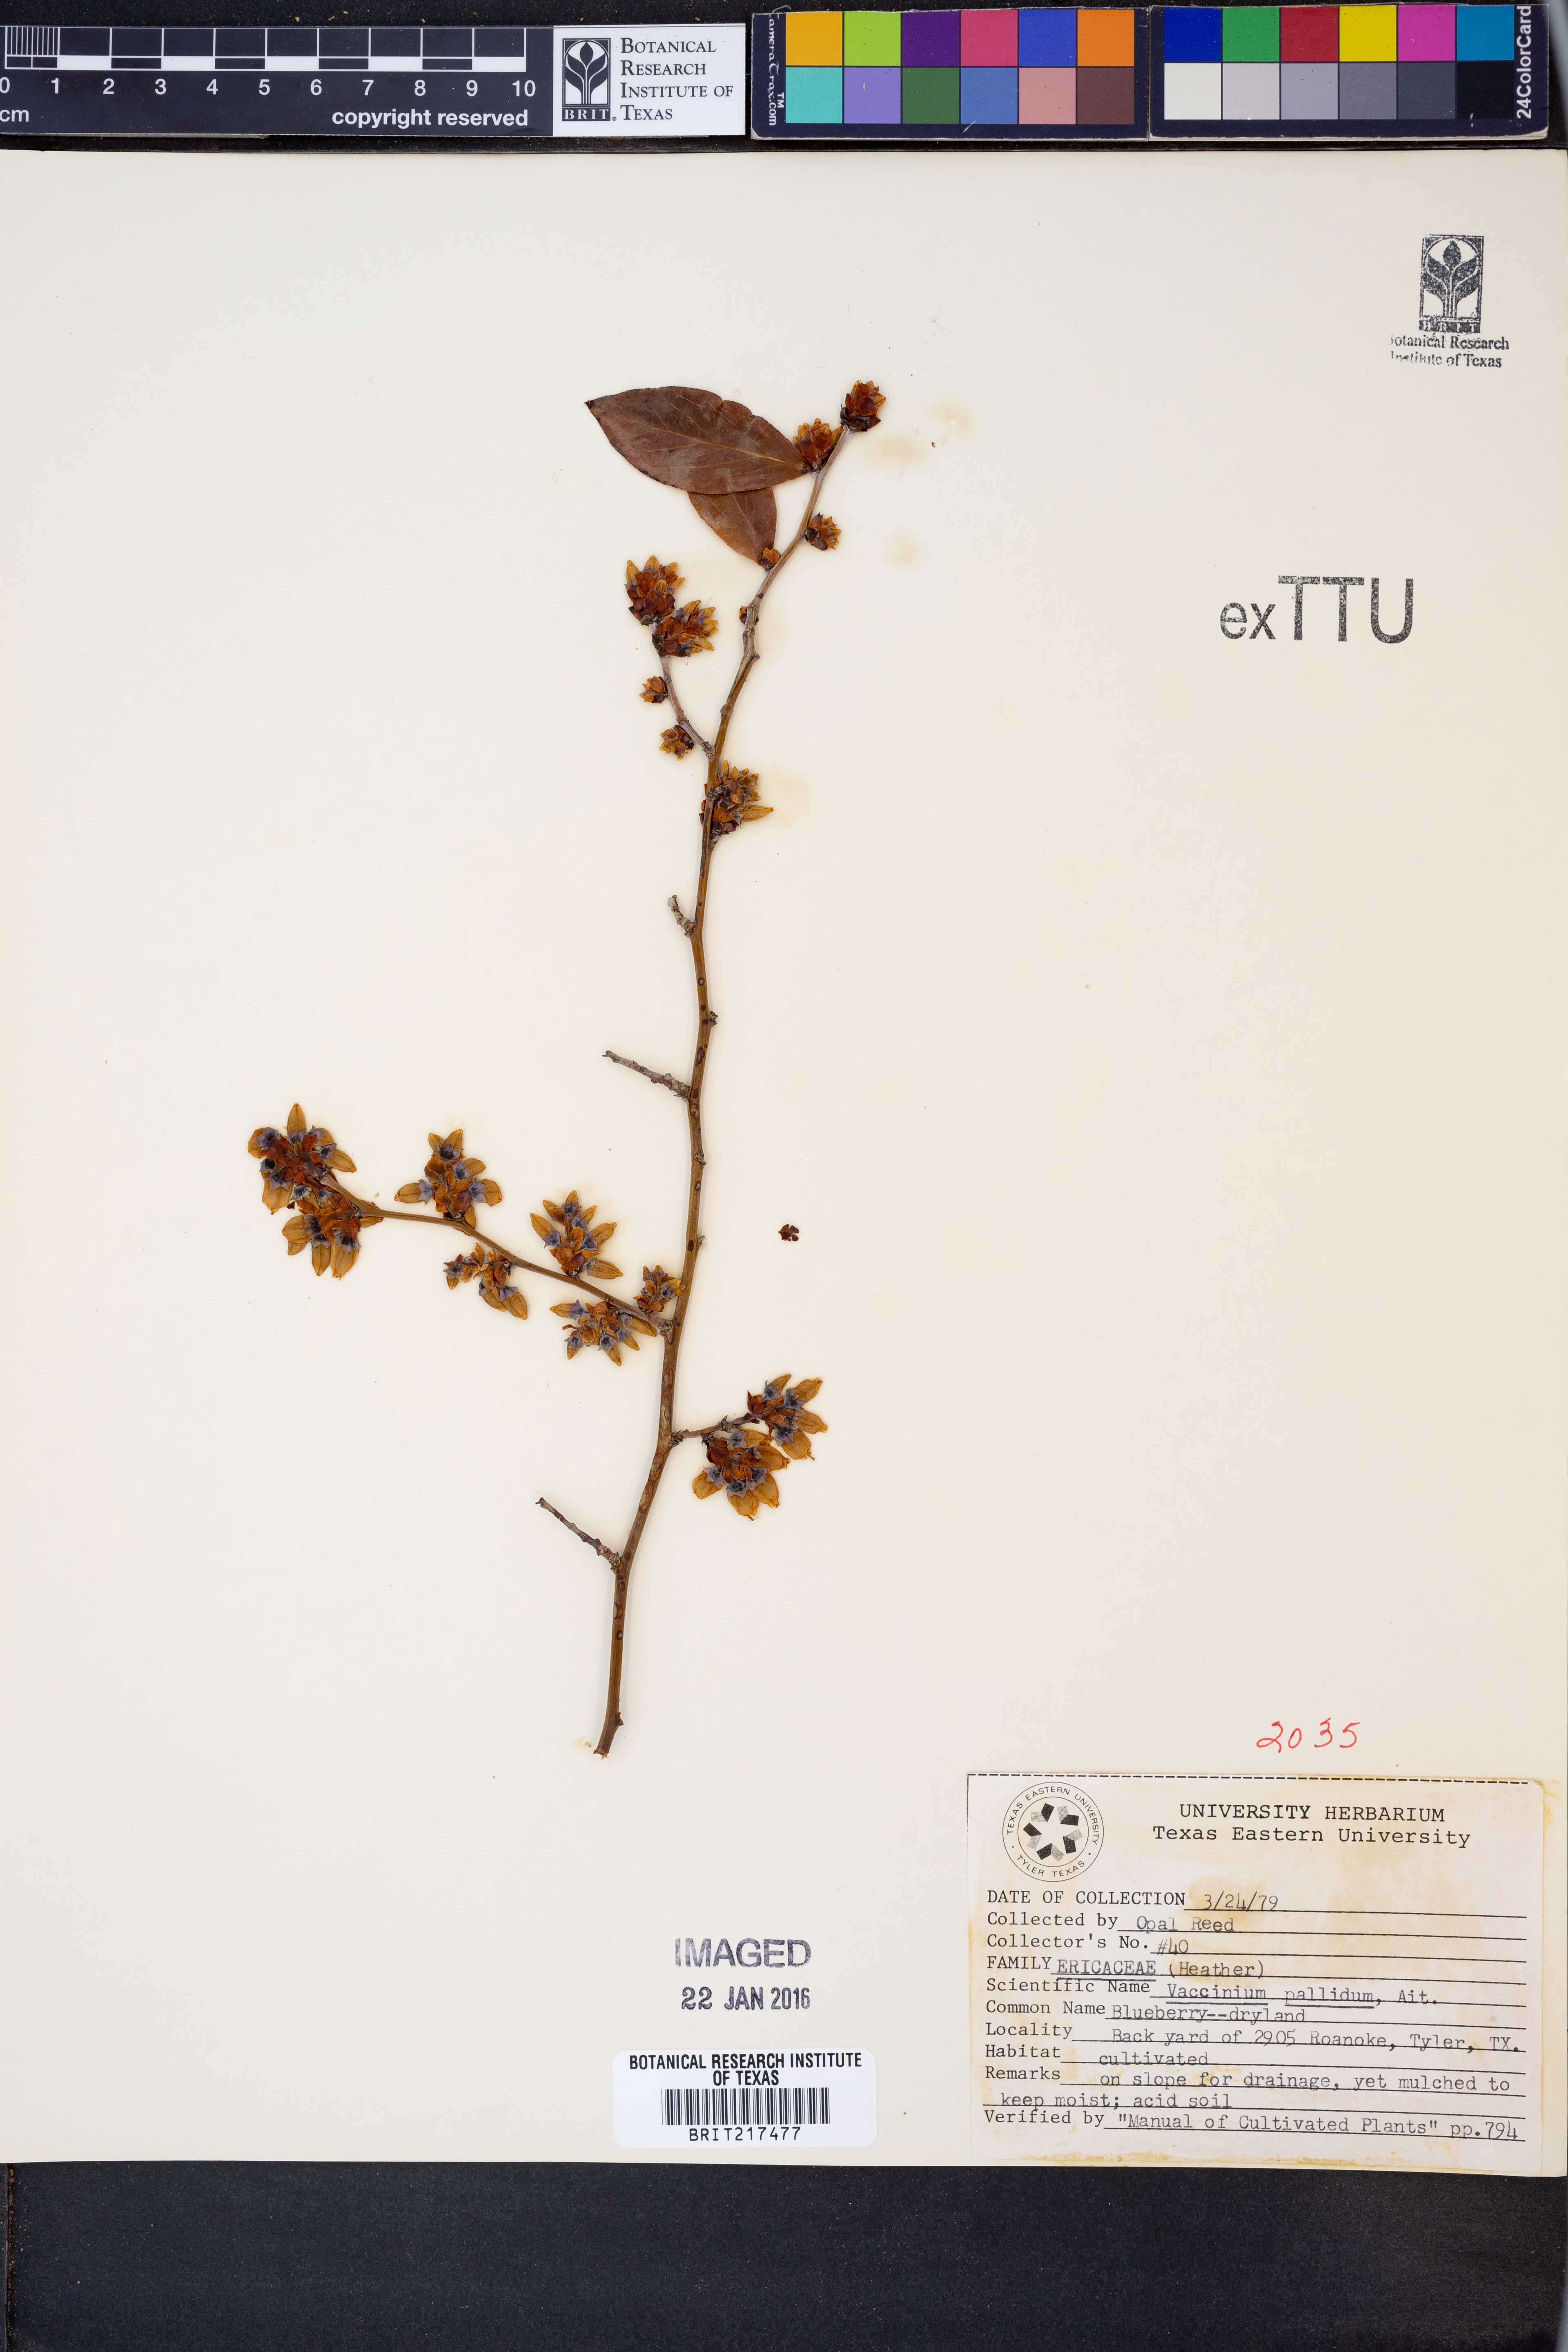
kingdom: Plantae
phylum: Tracheophyta
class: Magnoliopsida
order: Ericales
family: Ericaceae
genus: Vaccinium
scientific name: Vaccinium pallidum
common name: Blue ridge blueberry
